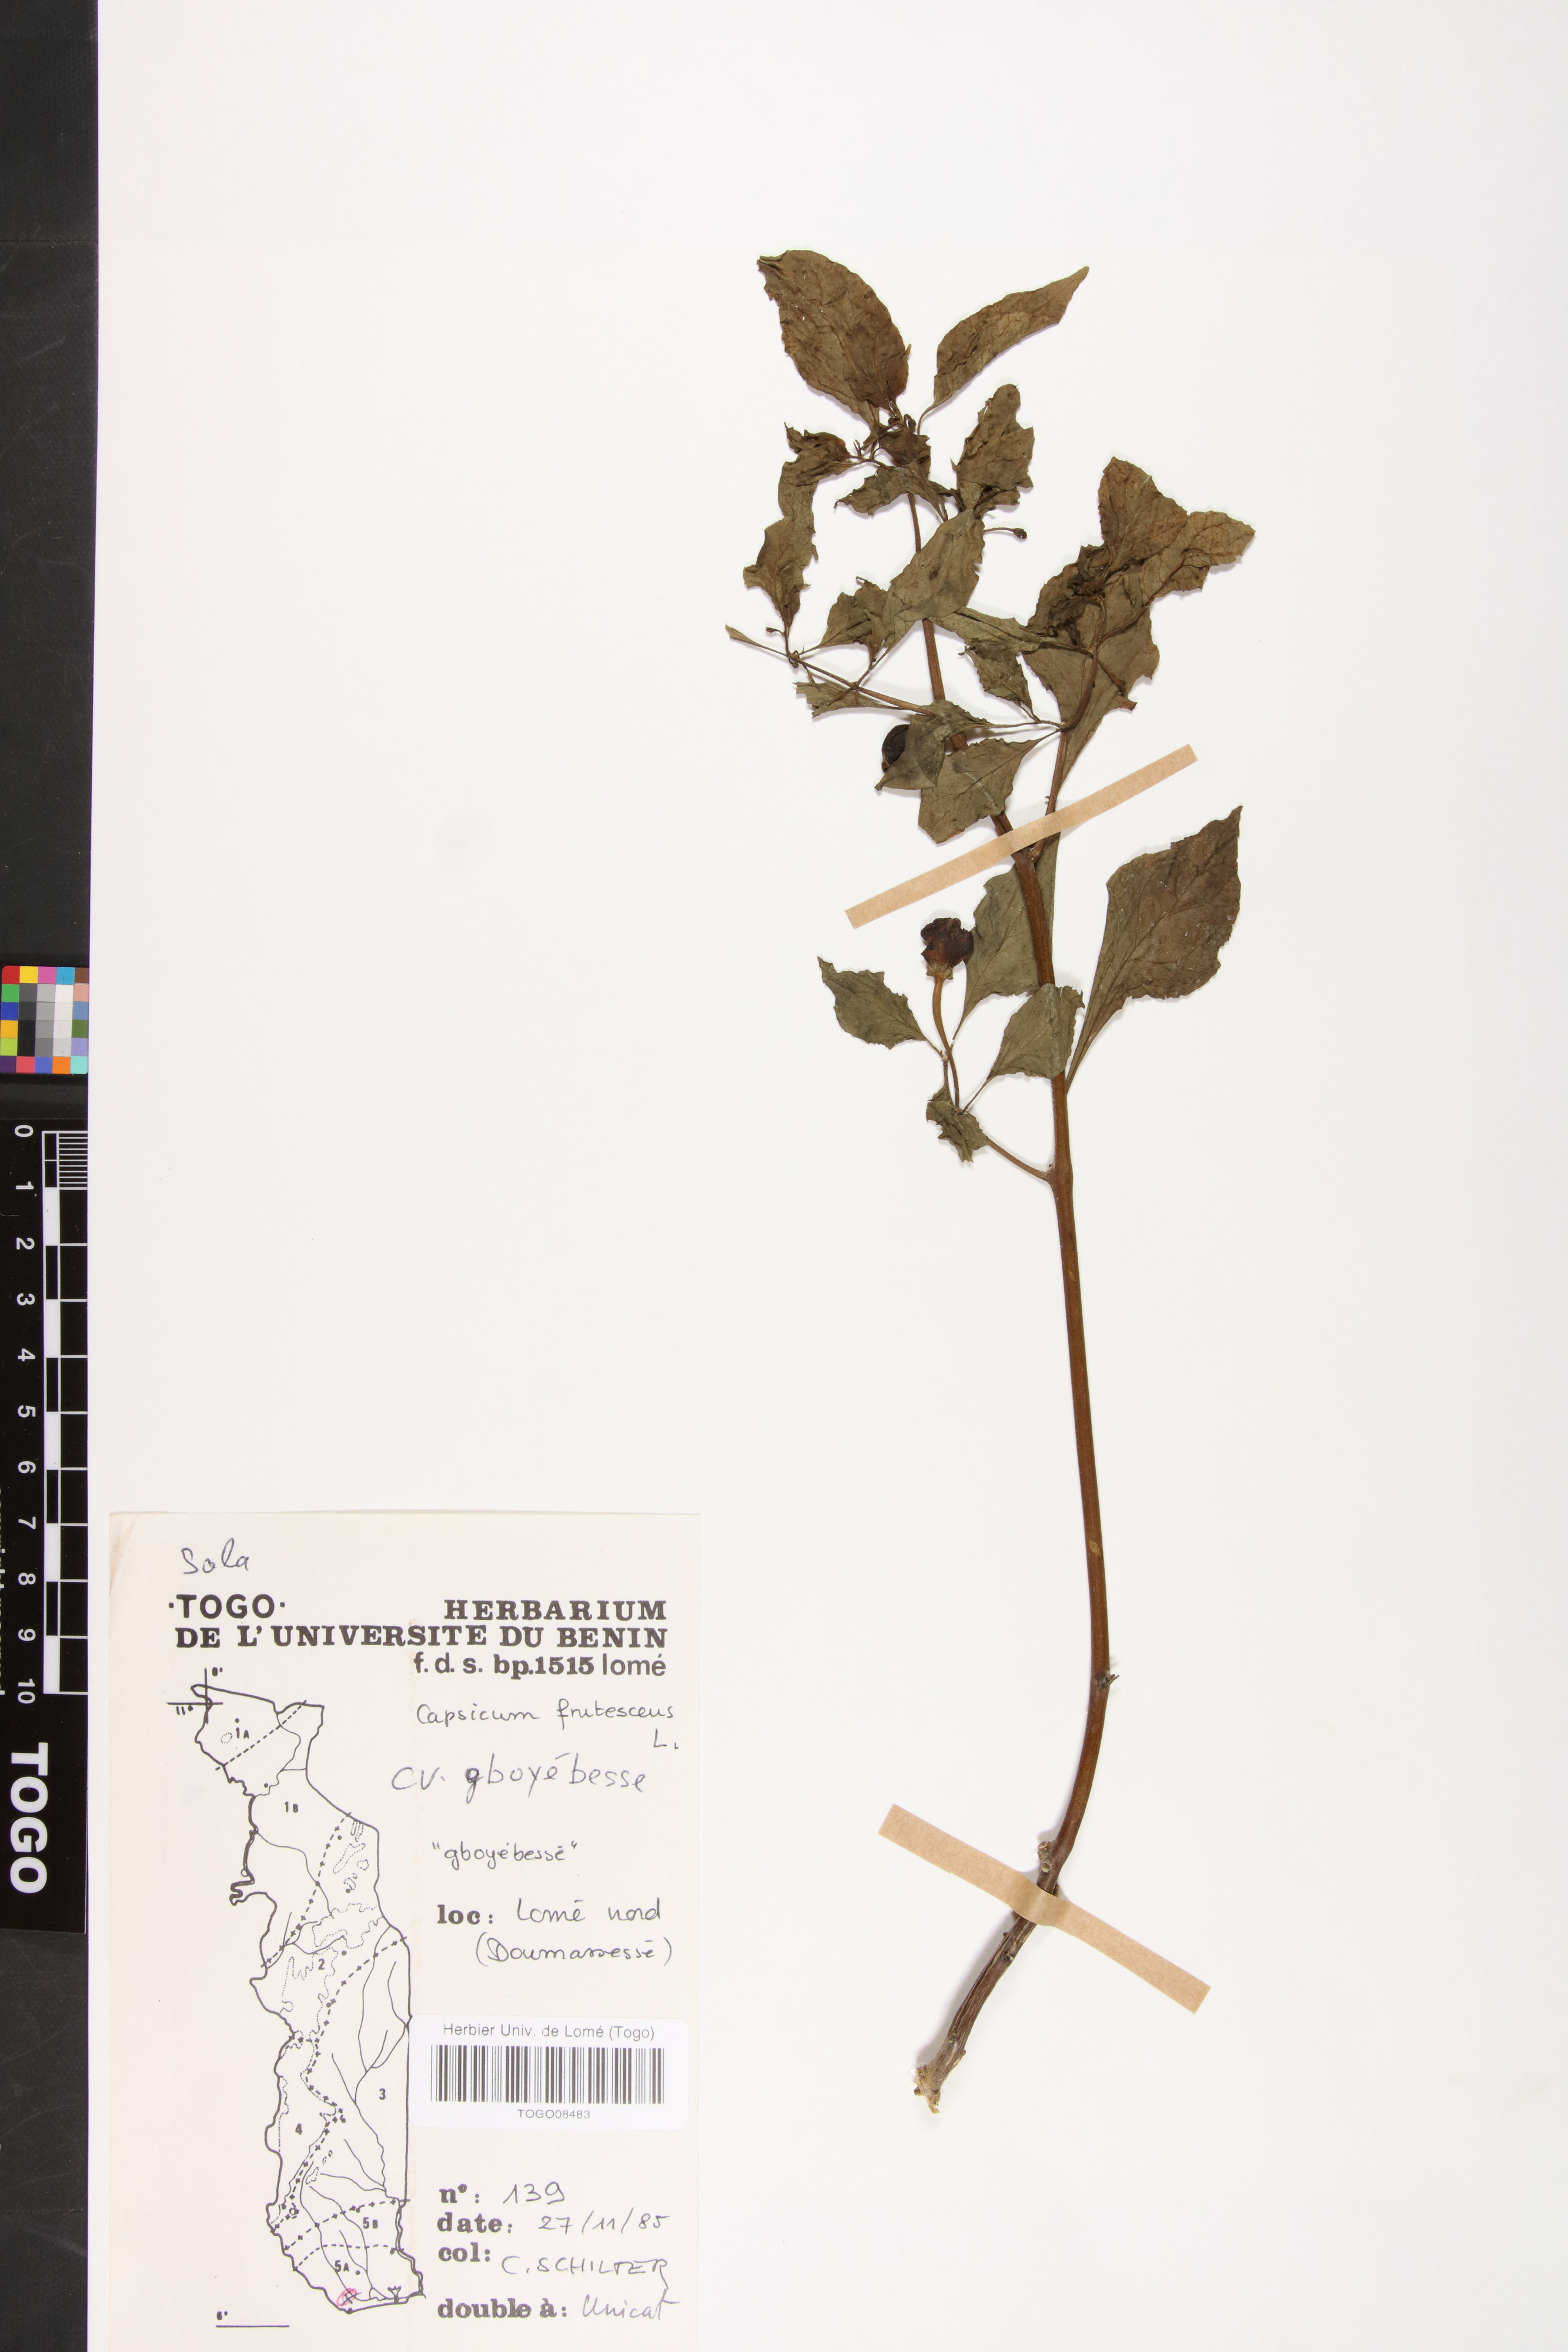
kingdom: Plantae
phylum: Tracheophyta
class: Magnoliopsida
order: Solanales
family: Solanaceae
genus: Capsicum
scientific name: Capsicum annuum
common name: Sweet pepper
